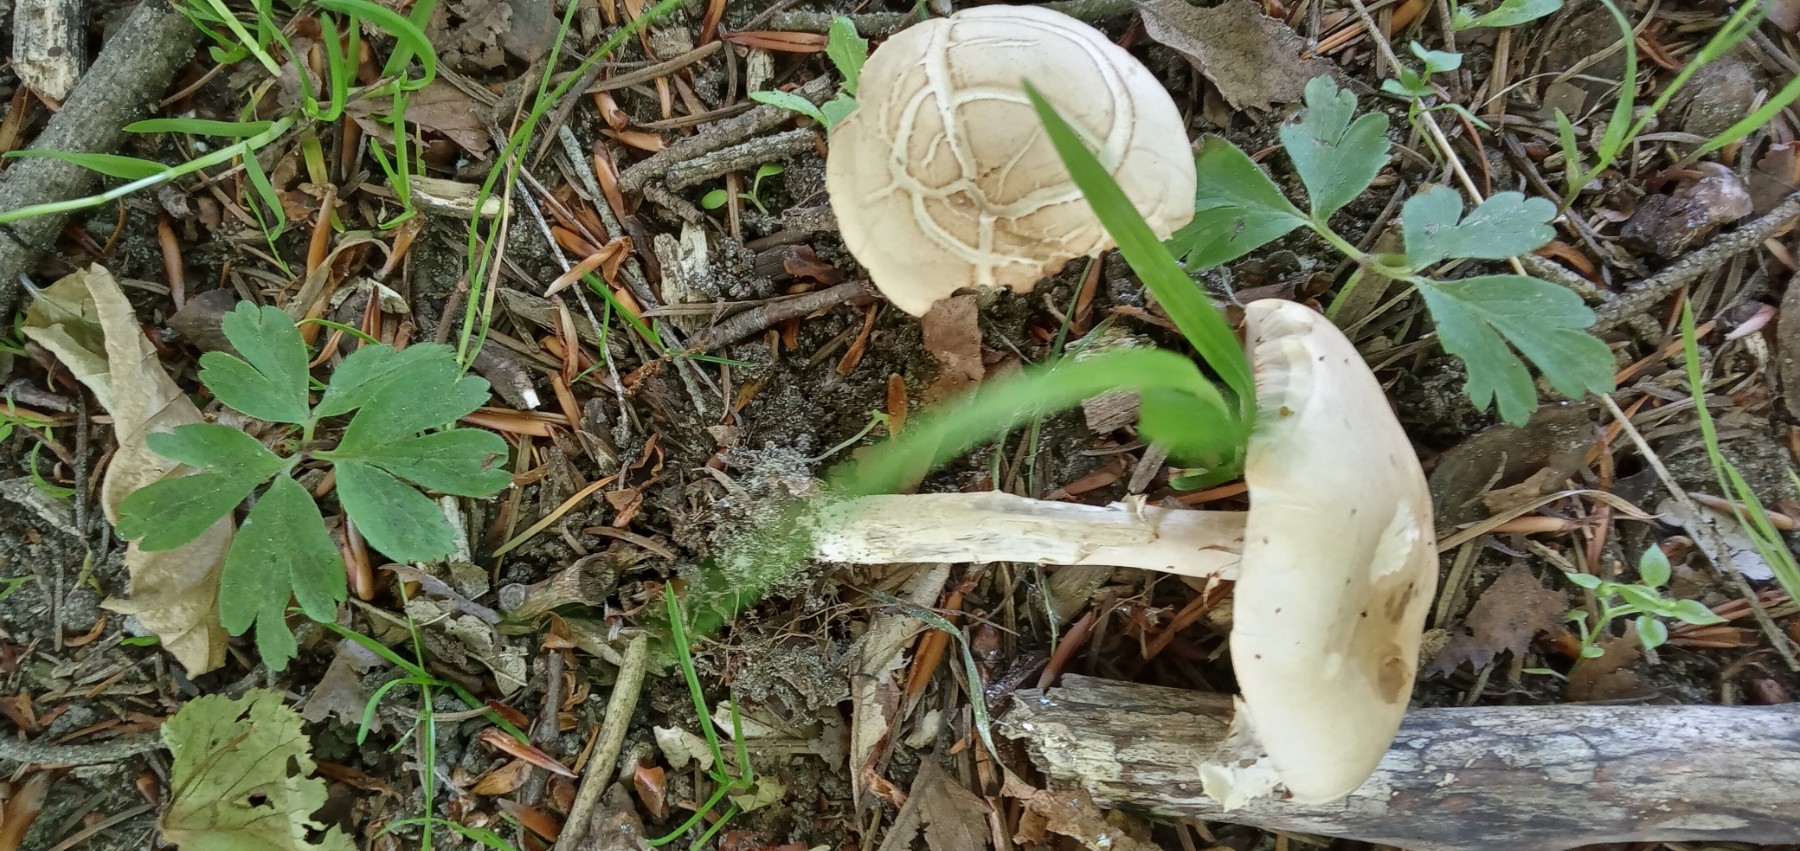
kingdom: Fungi
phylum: Basidiomycota
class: Agaricomycetes
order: Agaricales
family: Strophariaceae
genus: Agrocybe
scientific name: Agrocybe praecox
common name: tidlig agerhat
